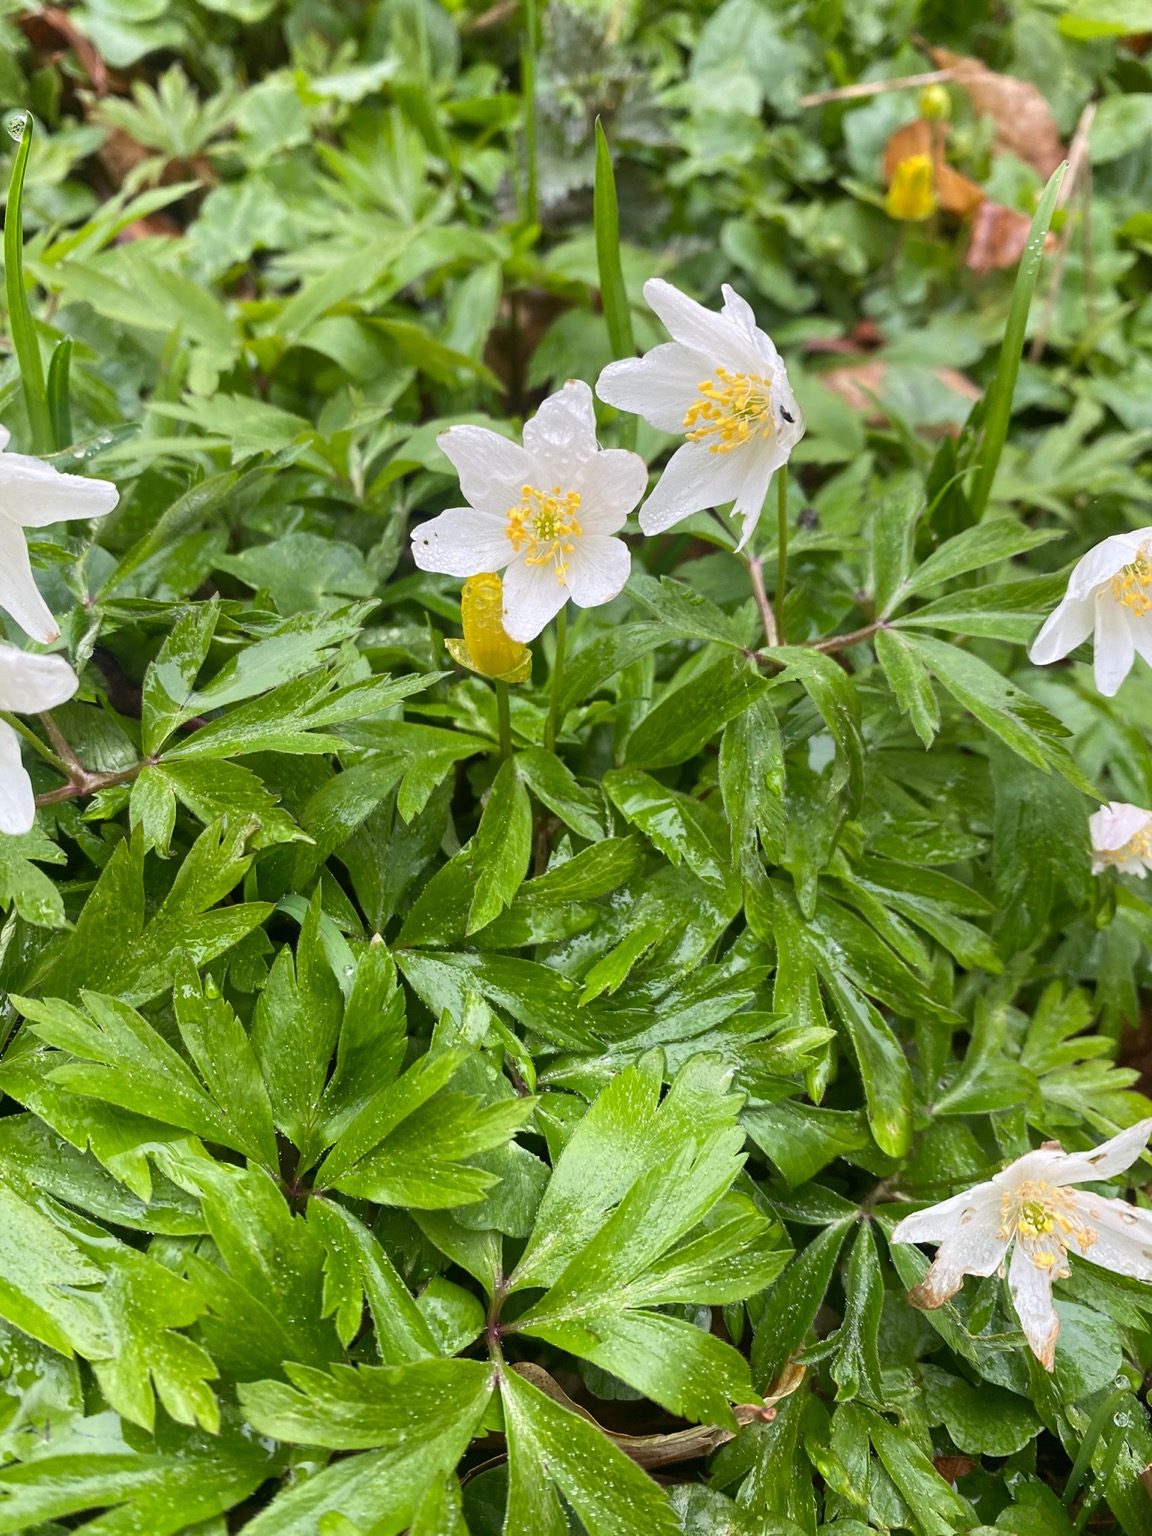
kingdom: Plantae
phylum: Tracheophyta
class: Magnoliopsida
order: Ranunculales
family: Ranunculaceae
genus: Anemone
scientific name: Anemone nemorosa
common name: Hvid anemone
